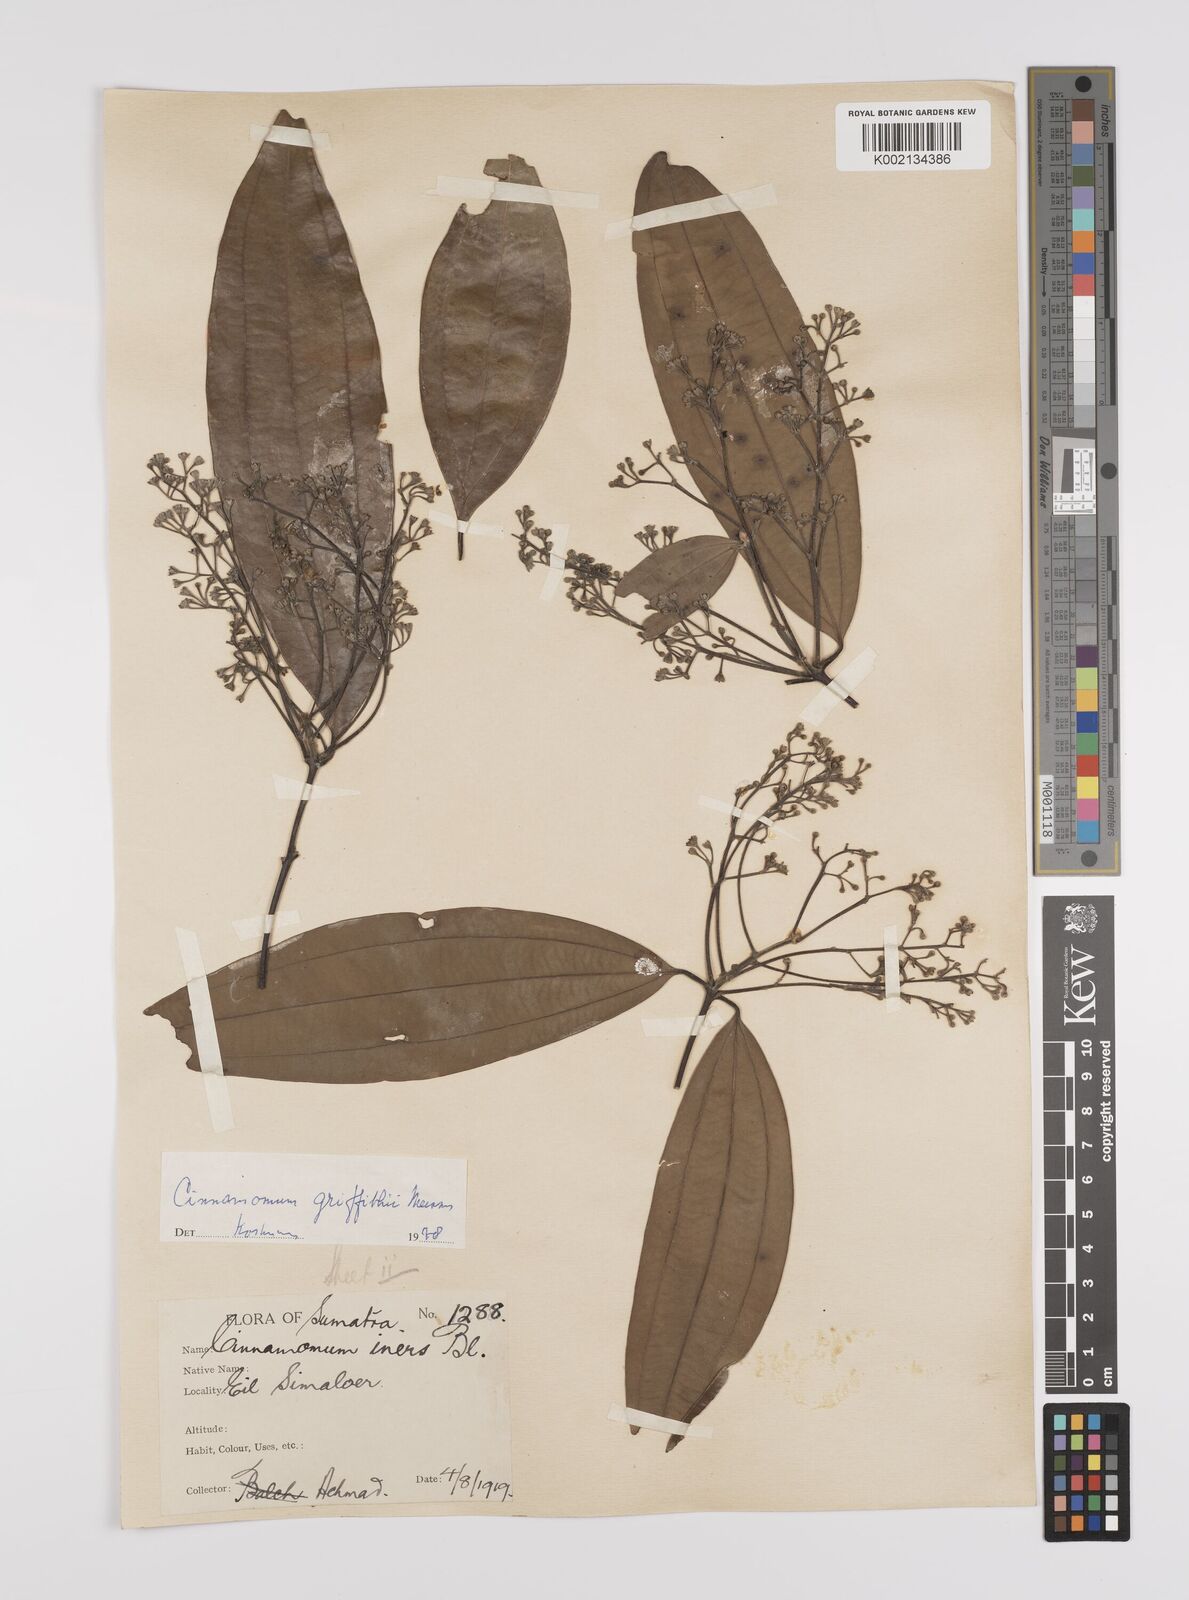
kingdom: Plantae
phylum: Tracheophyta
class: Magnoliopsida
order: Laurales
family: Lauraceae
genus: Cinnamomum
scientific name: Cinnamomum iners
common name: Wild cinnamon
